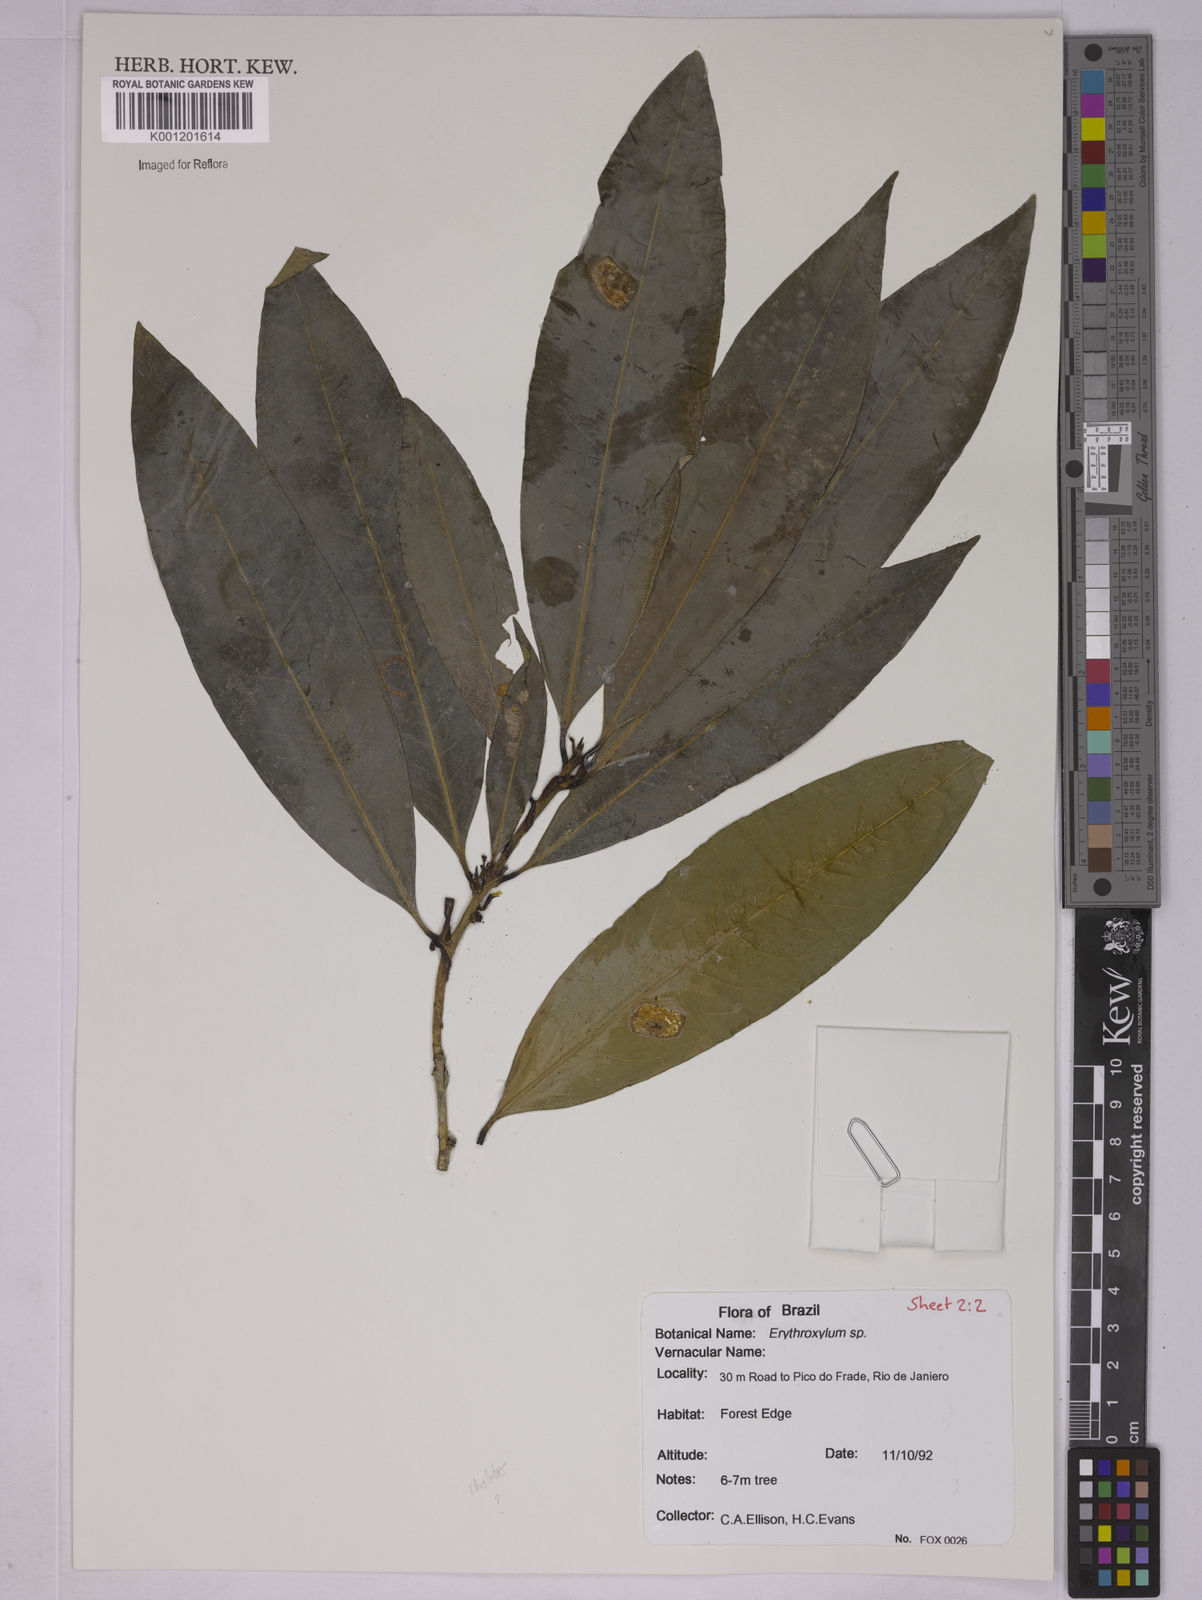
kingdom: Plantae
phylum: Tracheophyta
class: Magnoliopsida
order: Malpighiales
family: Erythroxylaceae
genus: Erythroxylum
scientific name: Erythroxylum
